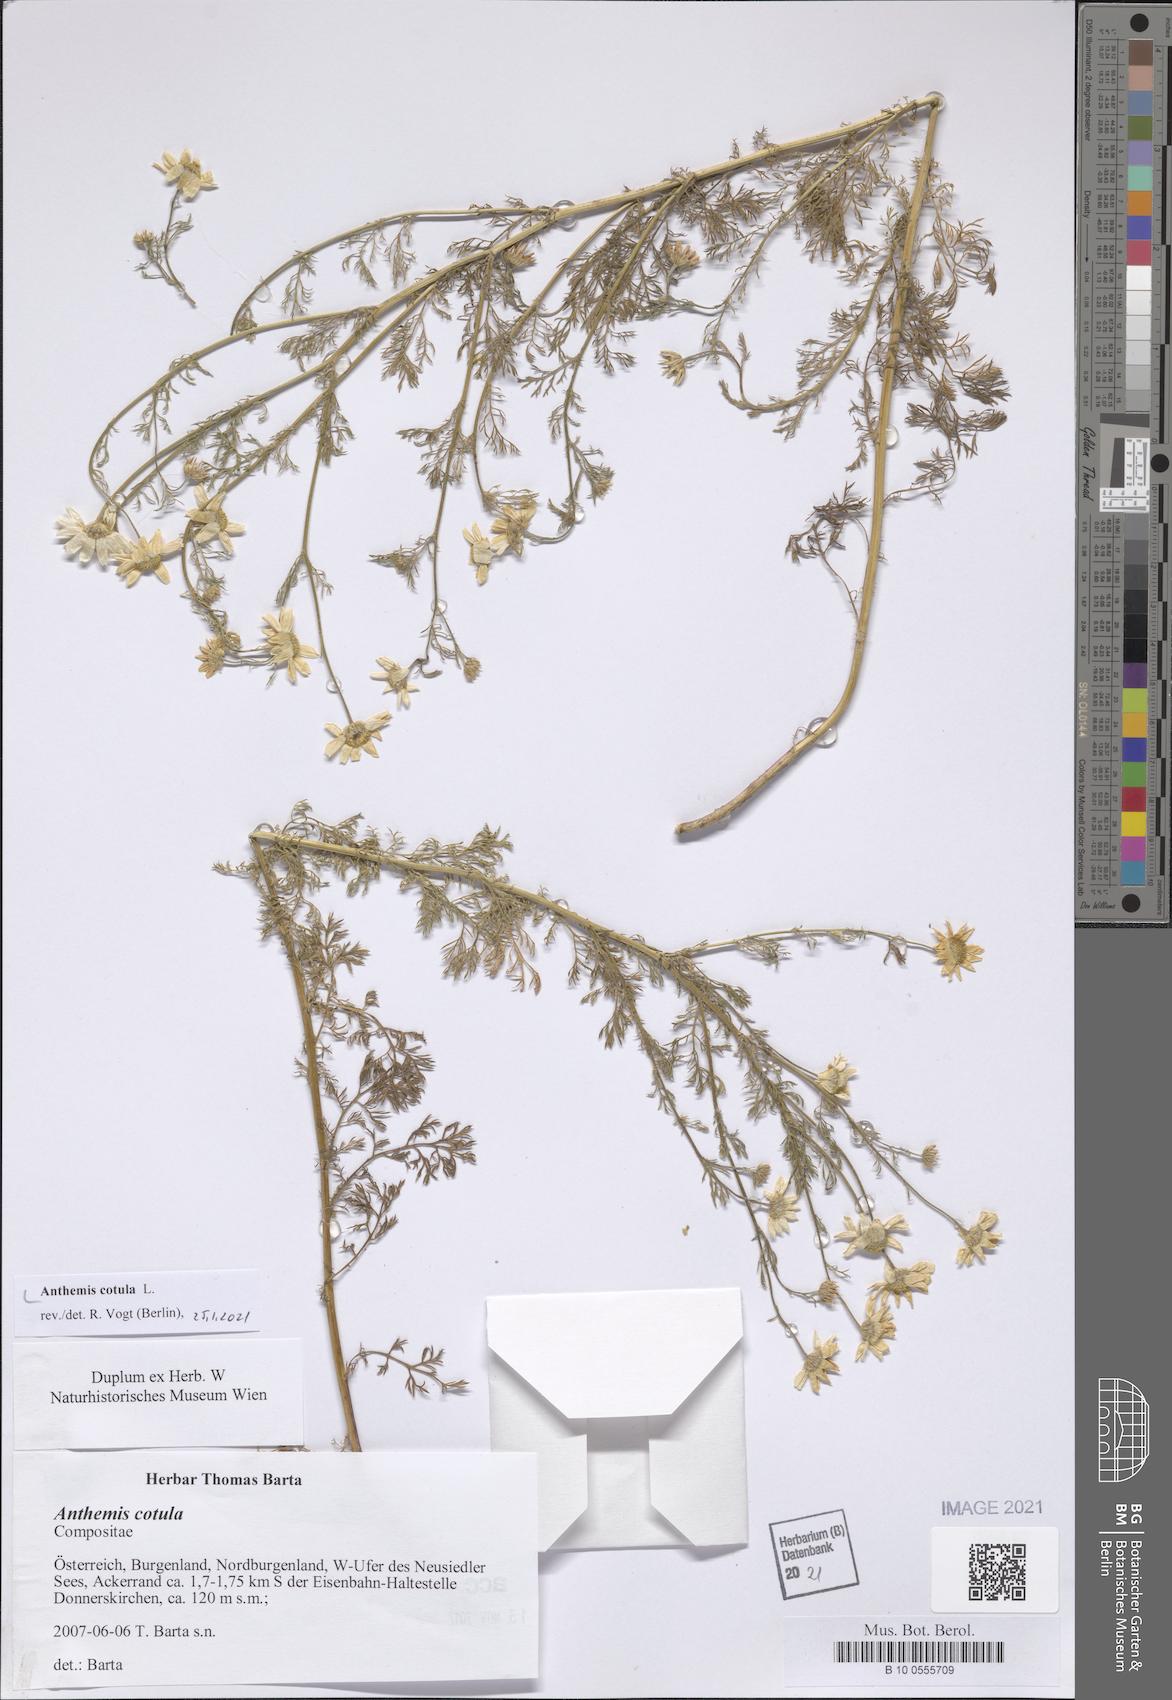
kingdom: Plantae
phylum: Tracheophyta
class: Magnoliopsida
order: Asterales
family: Asteraceae
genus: Anthemis
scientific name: Anthemis cotula
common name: Stinking chamomile
